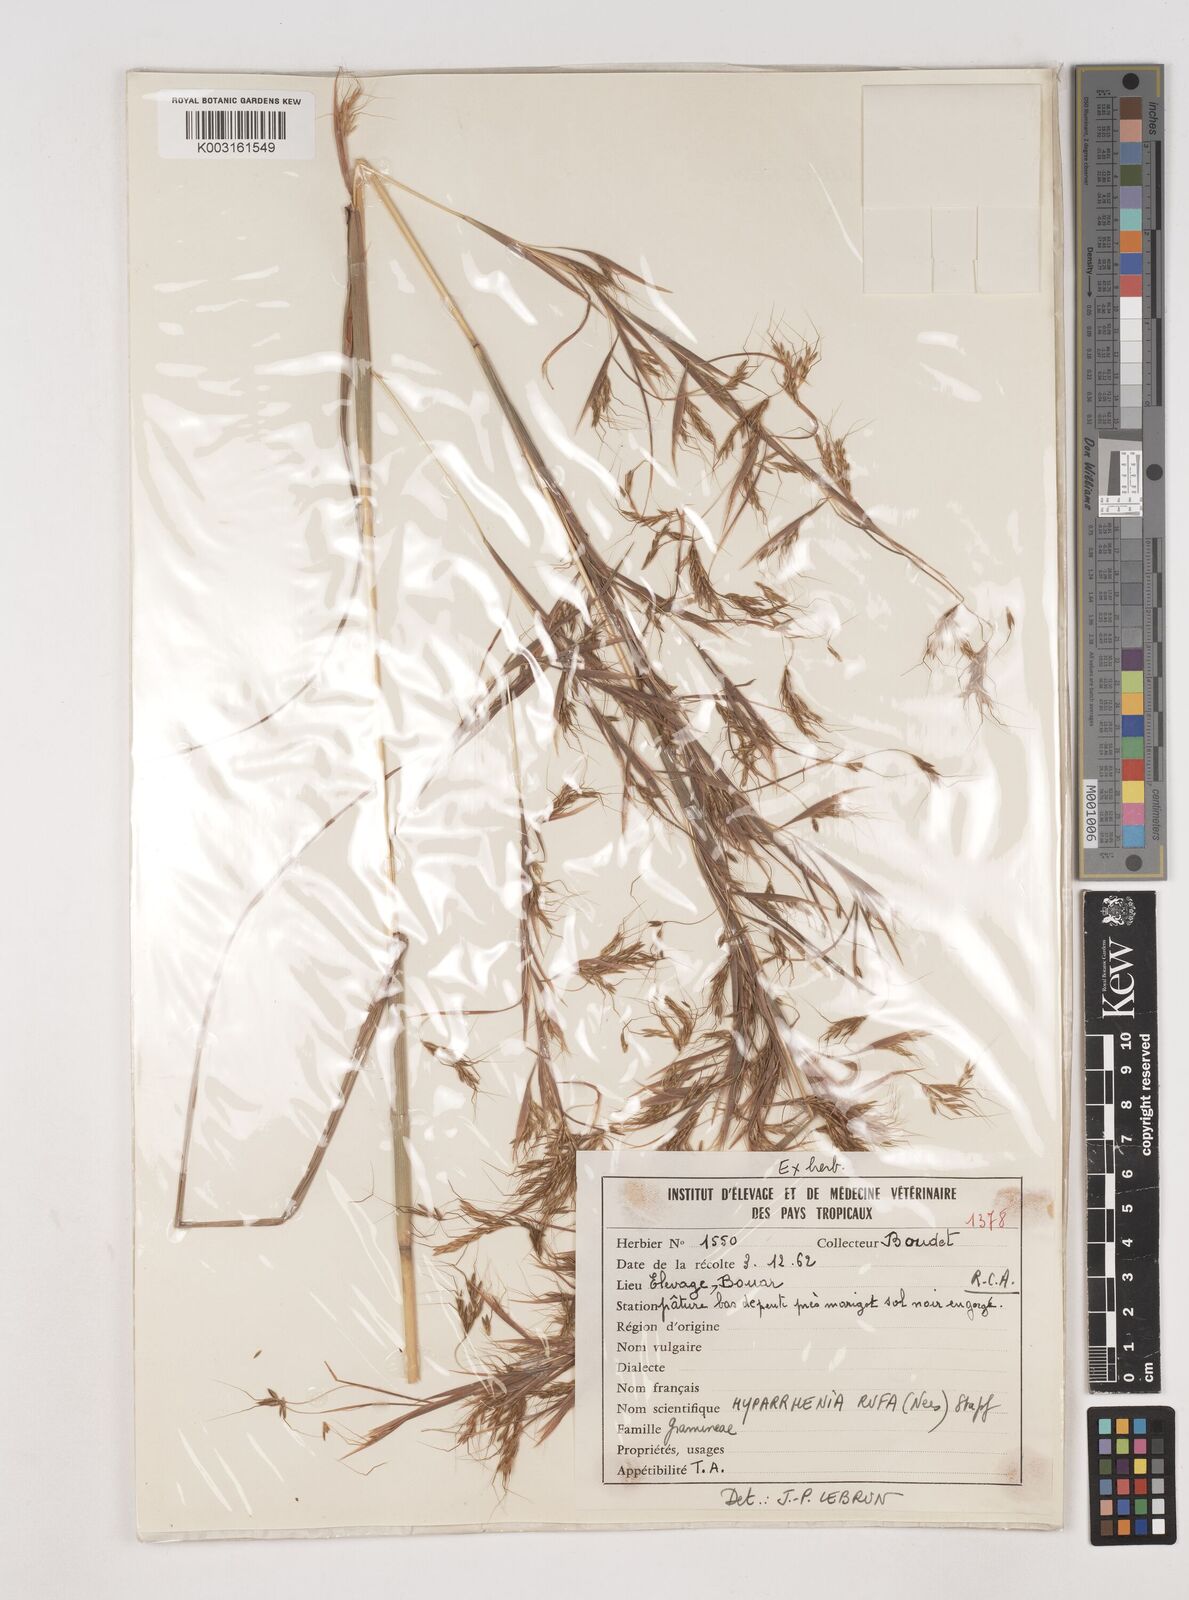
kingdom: Plantae
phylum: Tracheophyta
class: Liliopsida
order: Poales
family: Poaceae
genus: Hyparrhenia
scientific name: Hyparrhenia rufa
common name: Jaraguagrass
